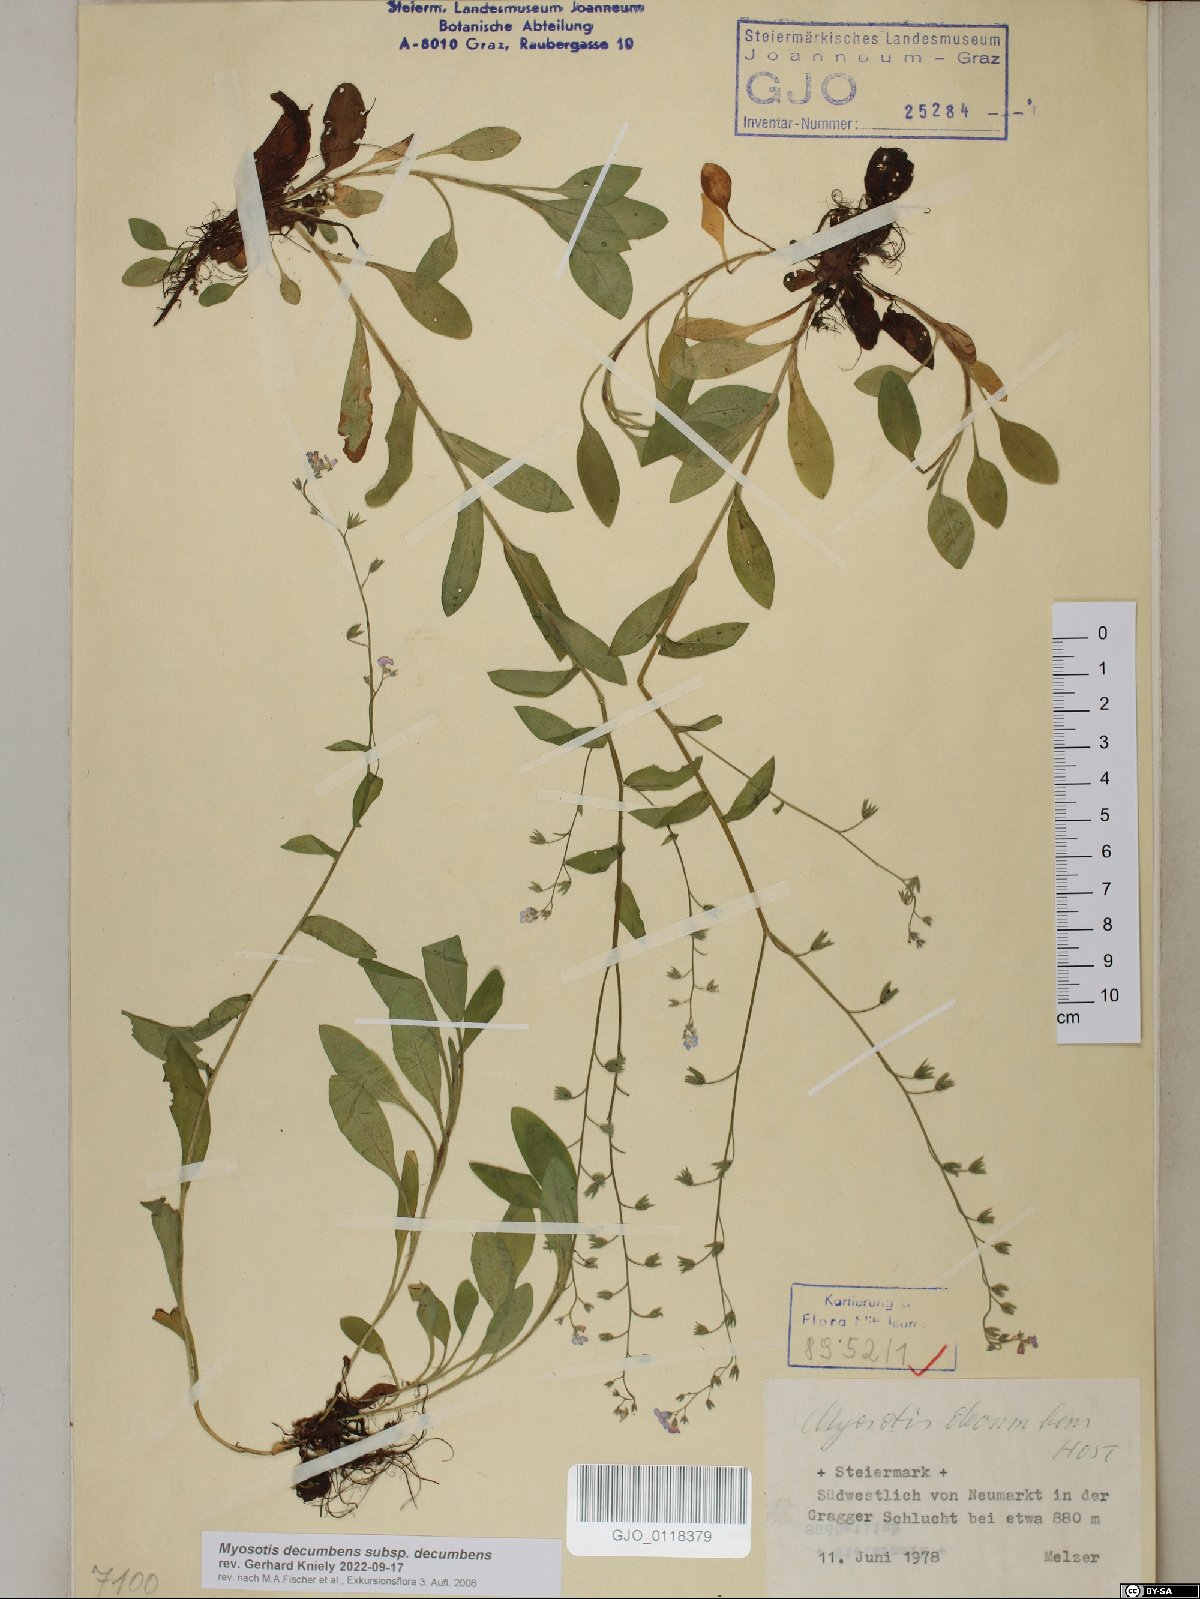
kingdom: Plantae
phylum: Tracheophyta
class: Magnoliopsida
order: Boraginales
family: Boraginaceae
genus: Myosotis
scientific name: Myosotis decumbens
